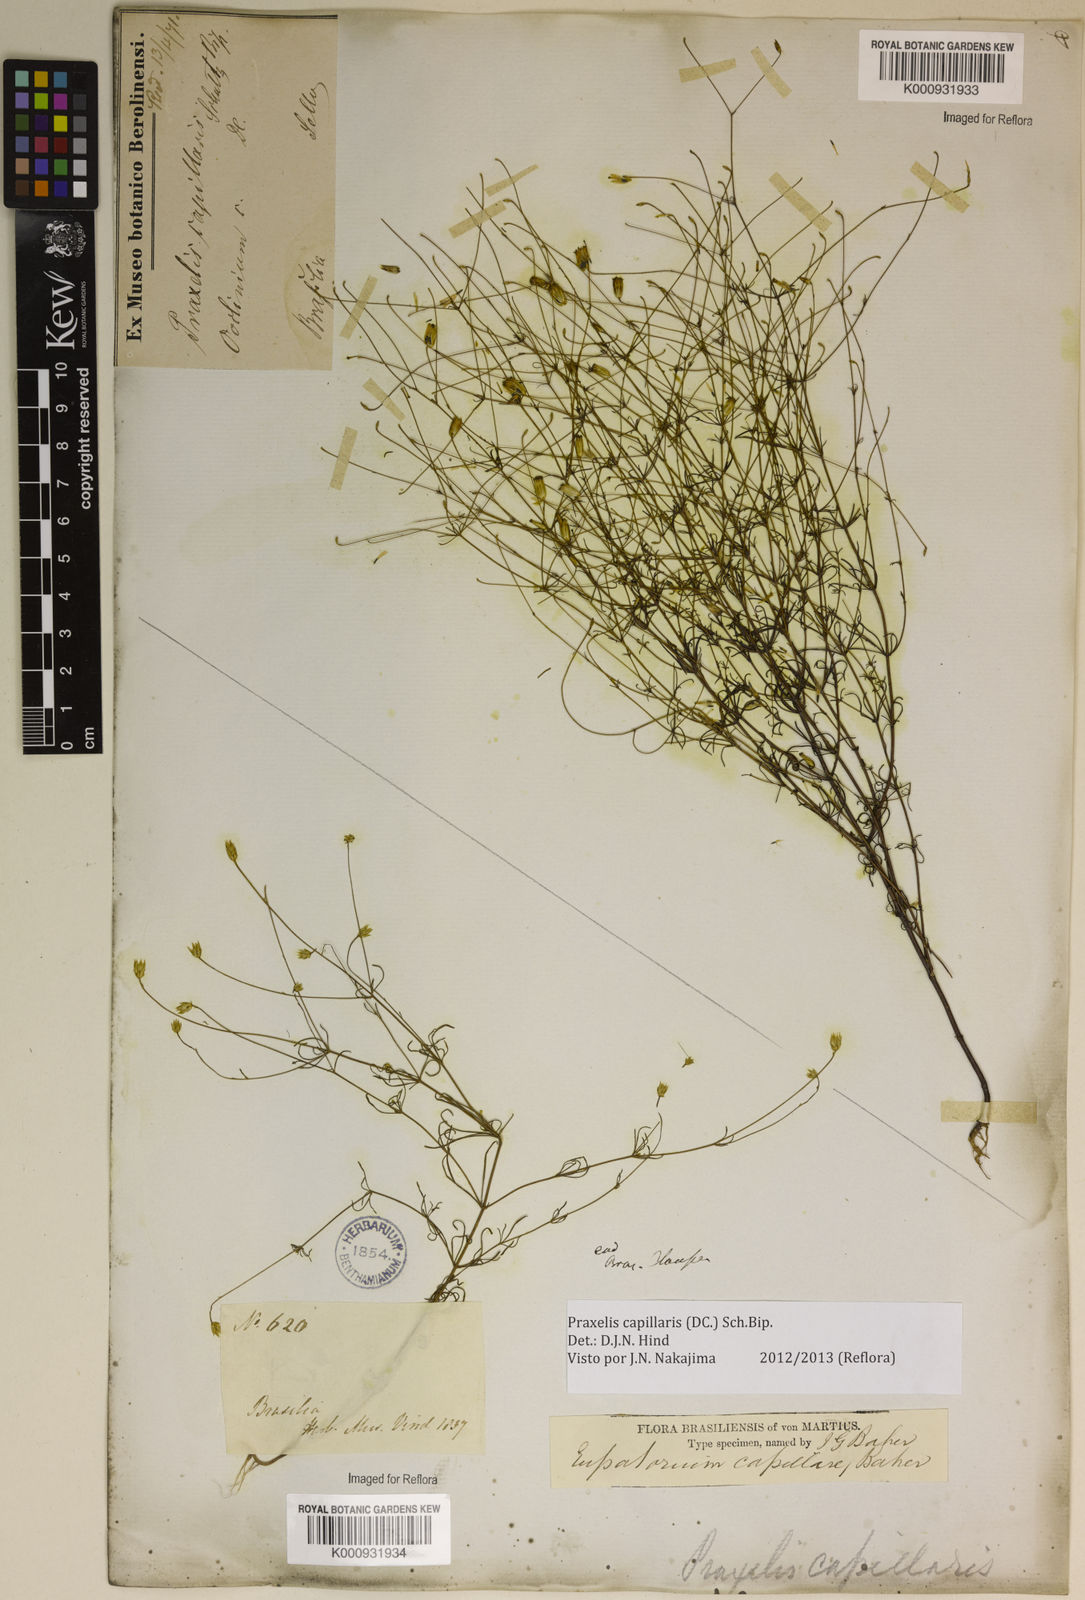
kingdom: Plantae
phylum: Tracheophyta
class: Magnoliopsida
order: Asterales
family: Asteraceae
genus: Praxelis
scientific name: Praxelis capillaris
